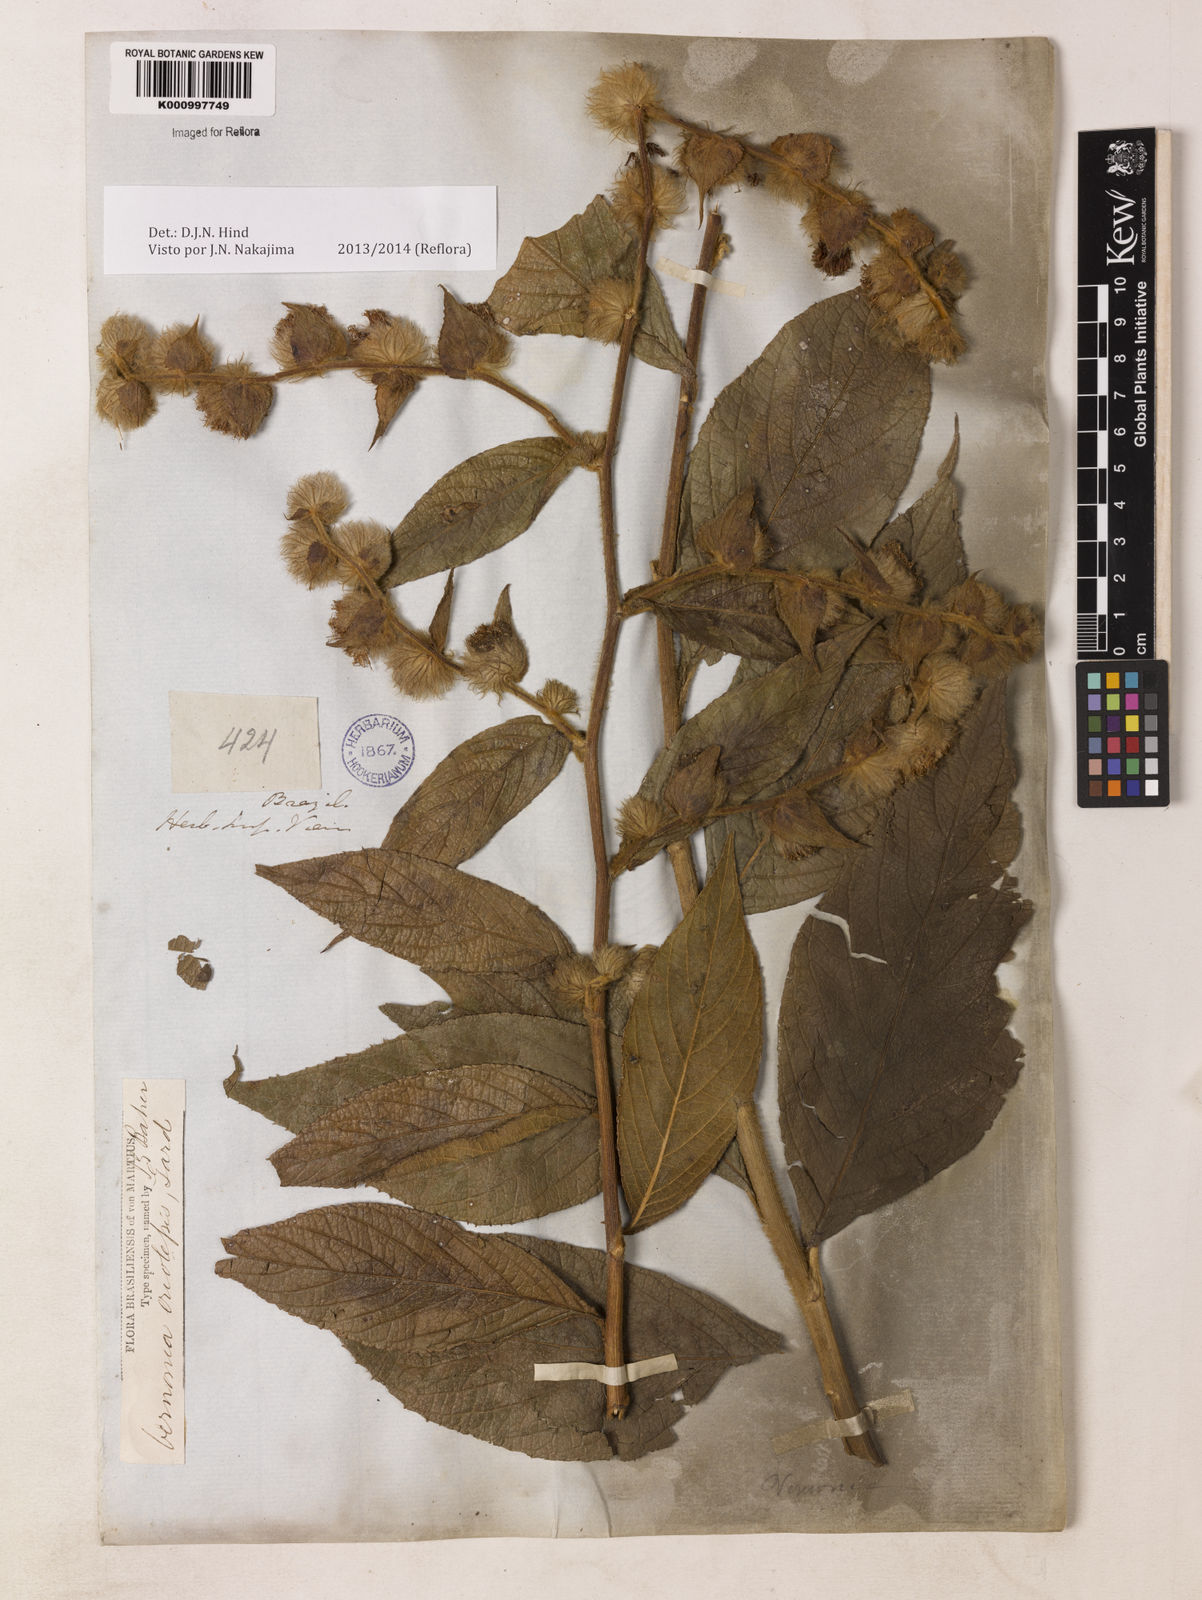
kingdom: Plantae
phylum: Tracheophyta
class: Magnoliopsida
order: Asterales
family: Asteraceae
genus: Lepidaploa
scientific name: Lepidaploa eriolepis
